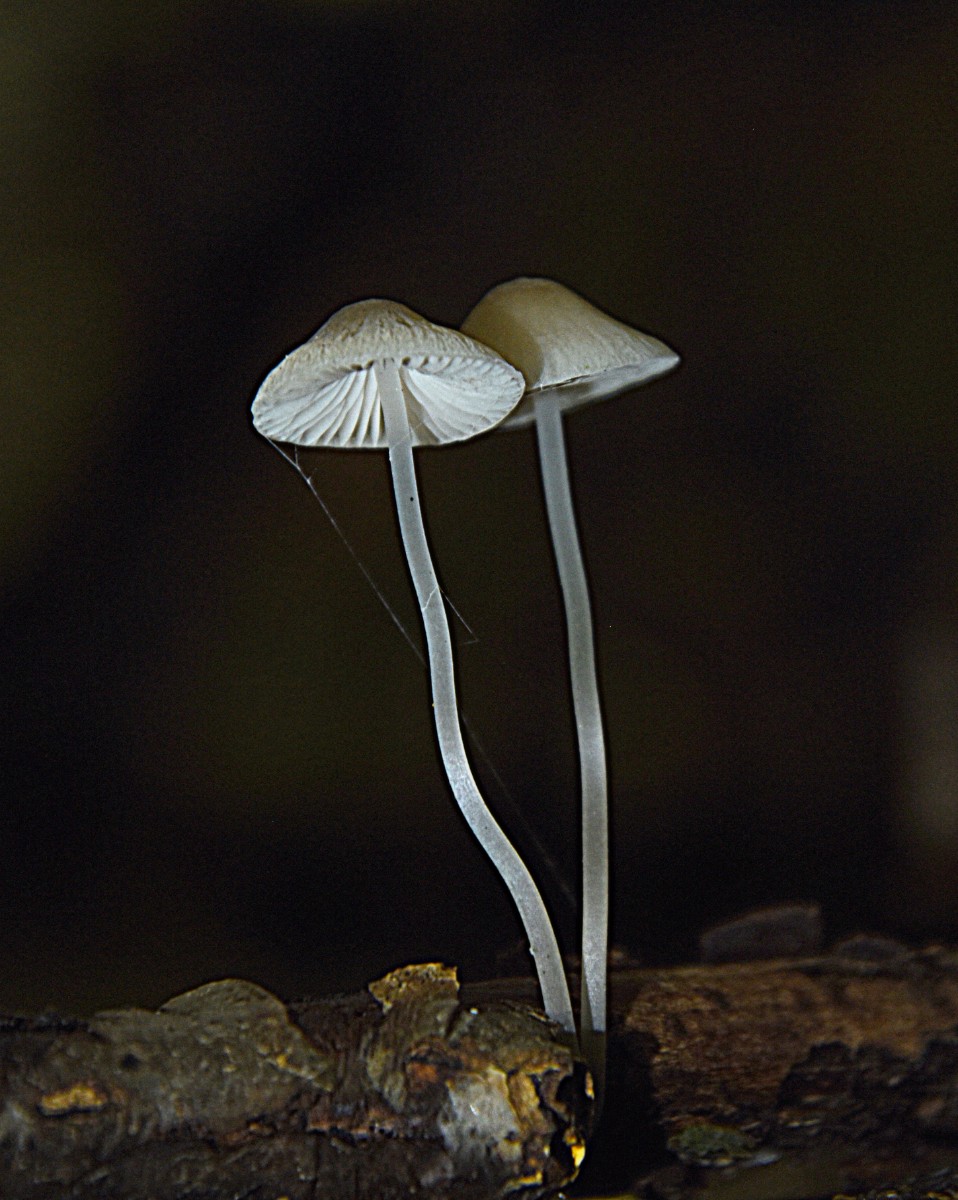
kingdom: Fungi
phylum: Basidiomycota
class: Agaricomycetes
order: Agaricales
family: Mycenaceae
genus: Mycena
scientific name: Mycena
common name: huesvamp
